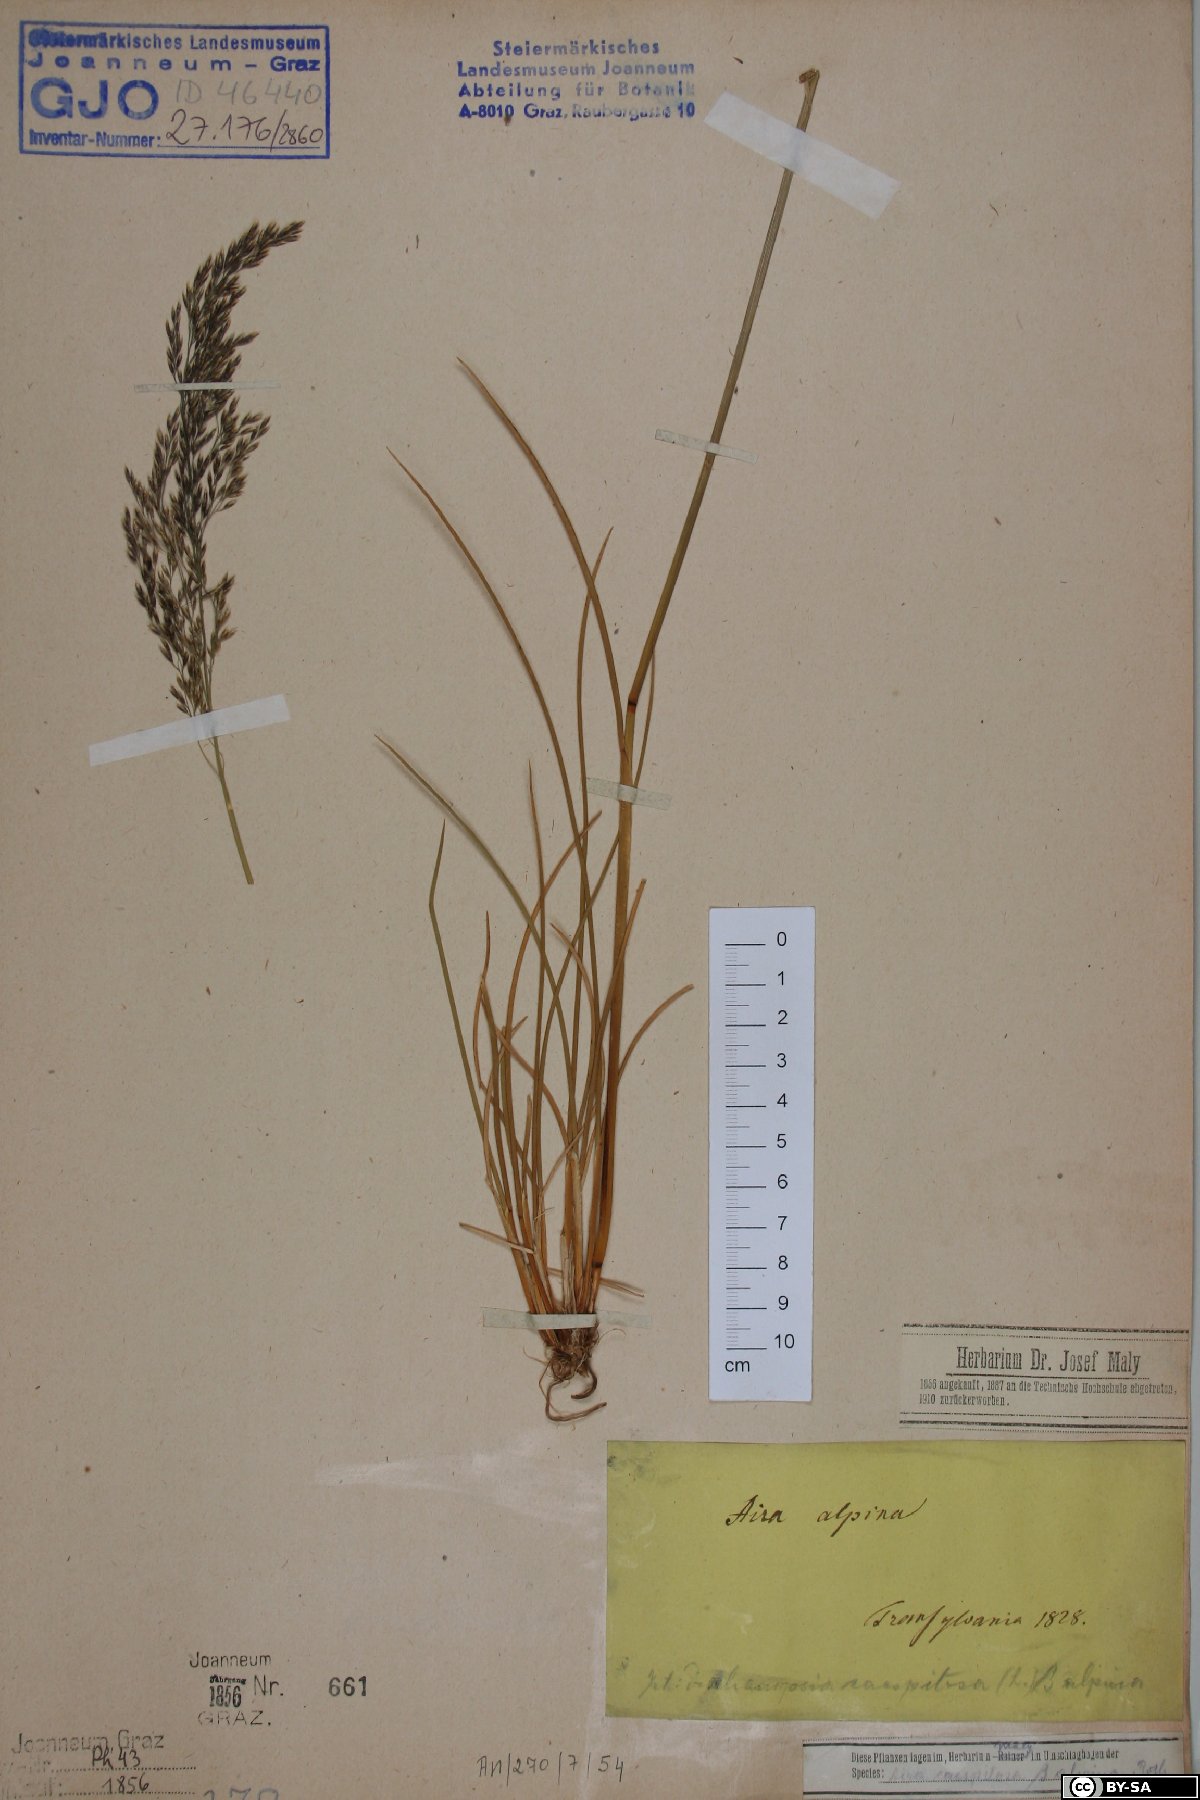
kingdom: Plantae
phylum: Tracheophyta
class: Liliopsida
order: Poales
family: Poaceae
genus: Deschampsia
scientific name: Deschampsia cespitosa
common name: Tufted hair-grass
